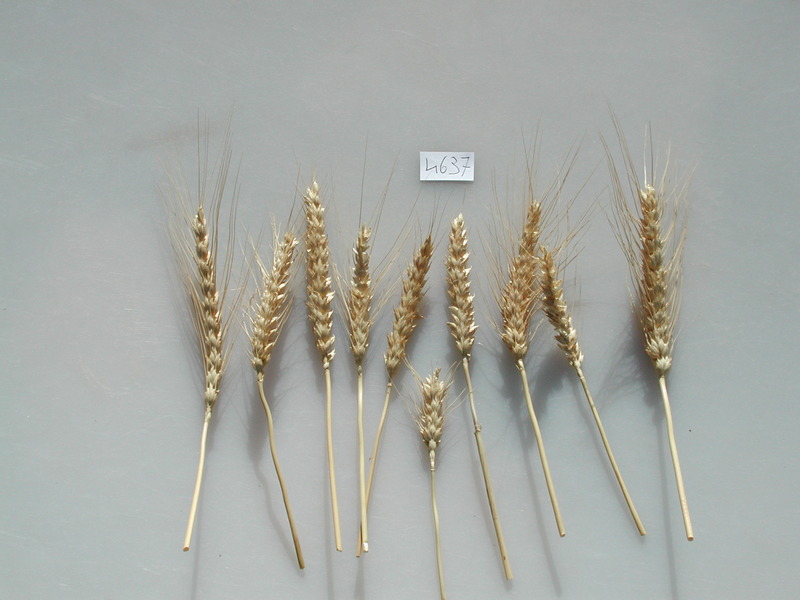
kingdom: Plantae
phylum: Tracheophyta
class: Liliopsida
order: Poales
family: Poaceae
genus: Triticum
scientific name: Triticum aestivum
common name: Wheat
